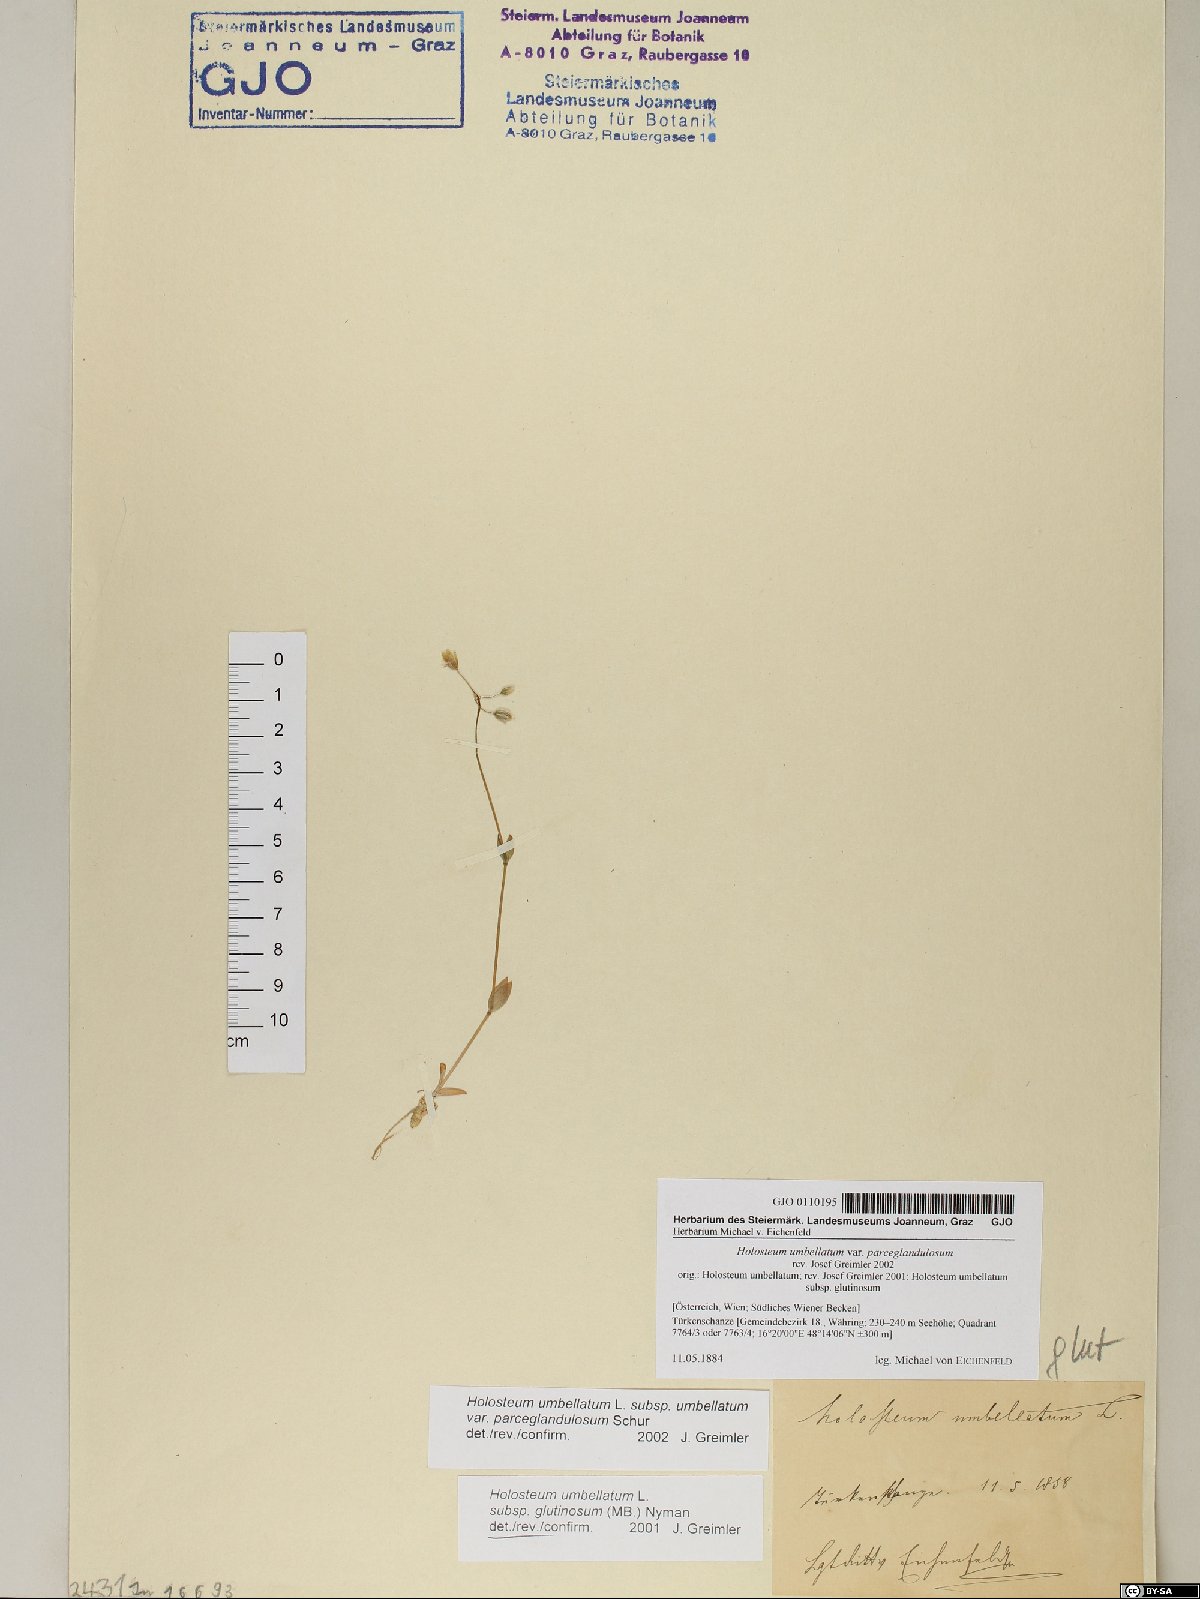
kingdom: Plantae
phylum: Tracheophyta
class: Magnoliopsida
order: Caryophyllales
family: Caryophyllaceae
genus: Holosteum
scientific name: Holosteum umbellatum
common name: Jagged chickweed
